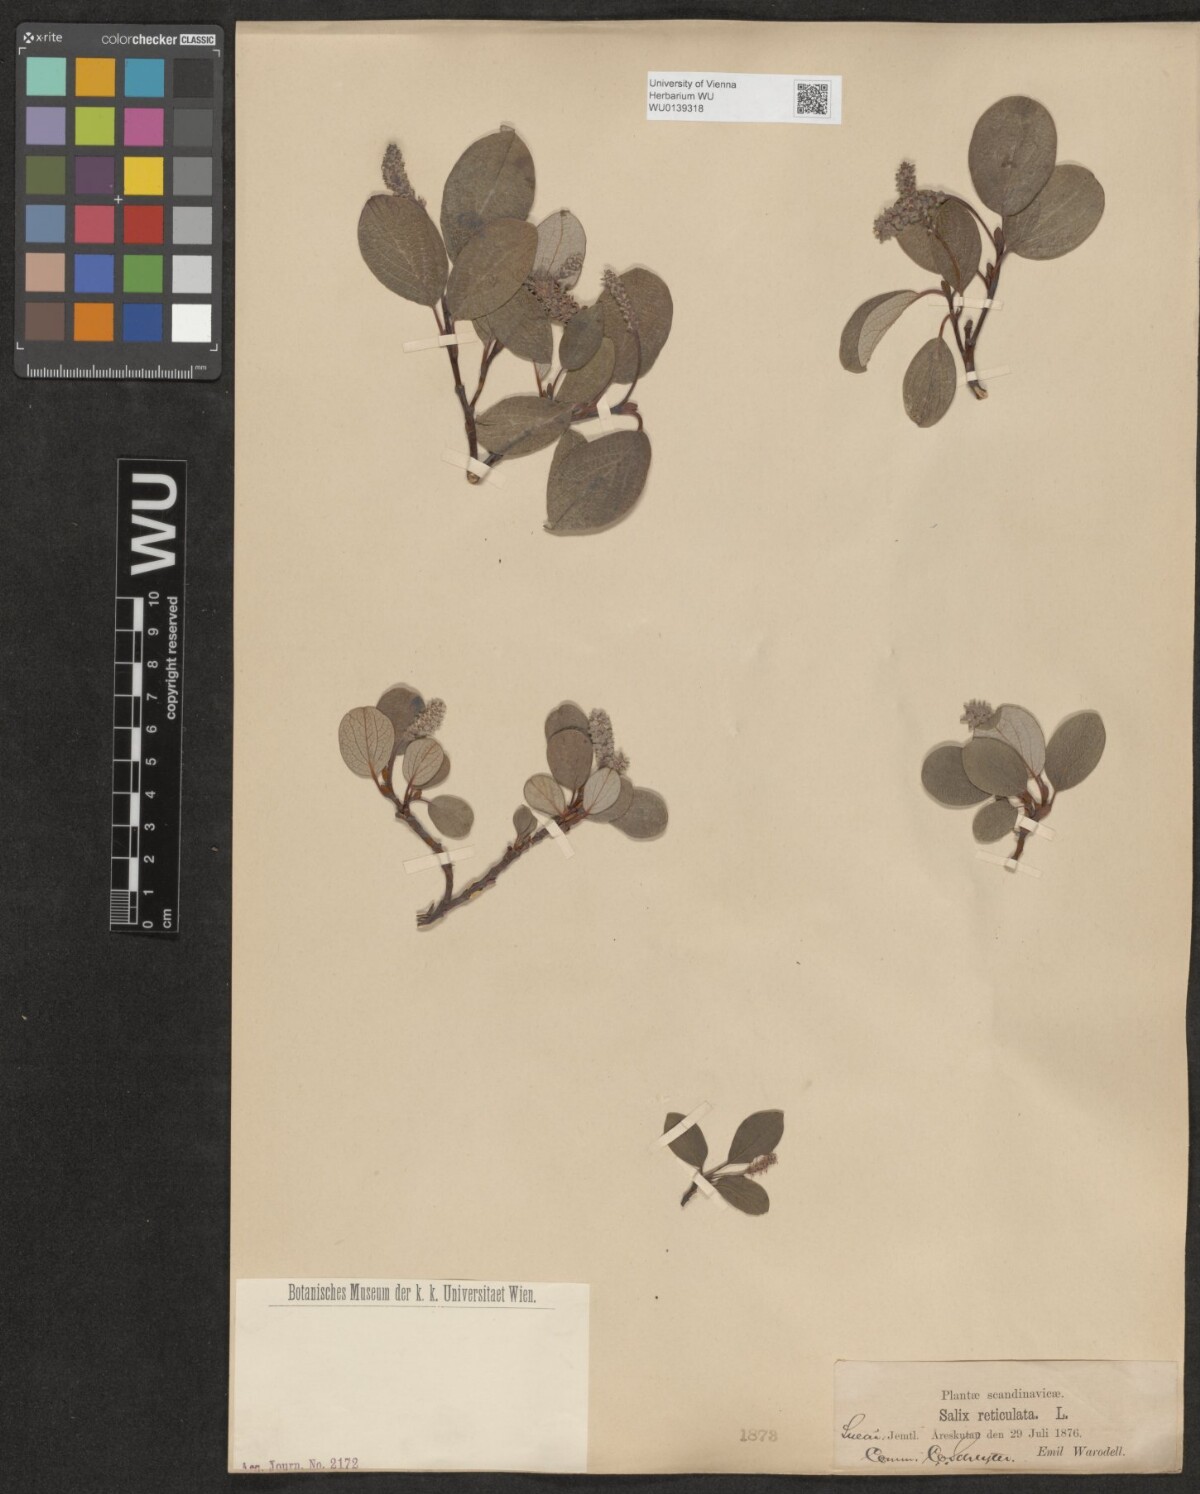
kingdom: Plantae
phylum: Tracheophyta
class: Magnoliopsida
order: Malpighiales
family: Salicaceae
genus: Salix
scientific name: Salix reticulata
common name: Net-leaved willow
